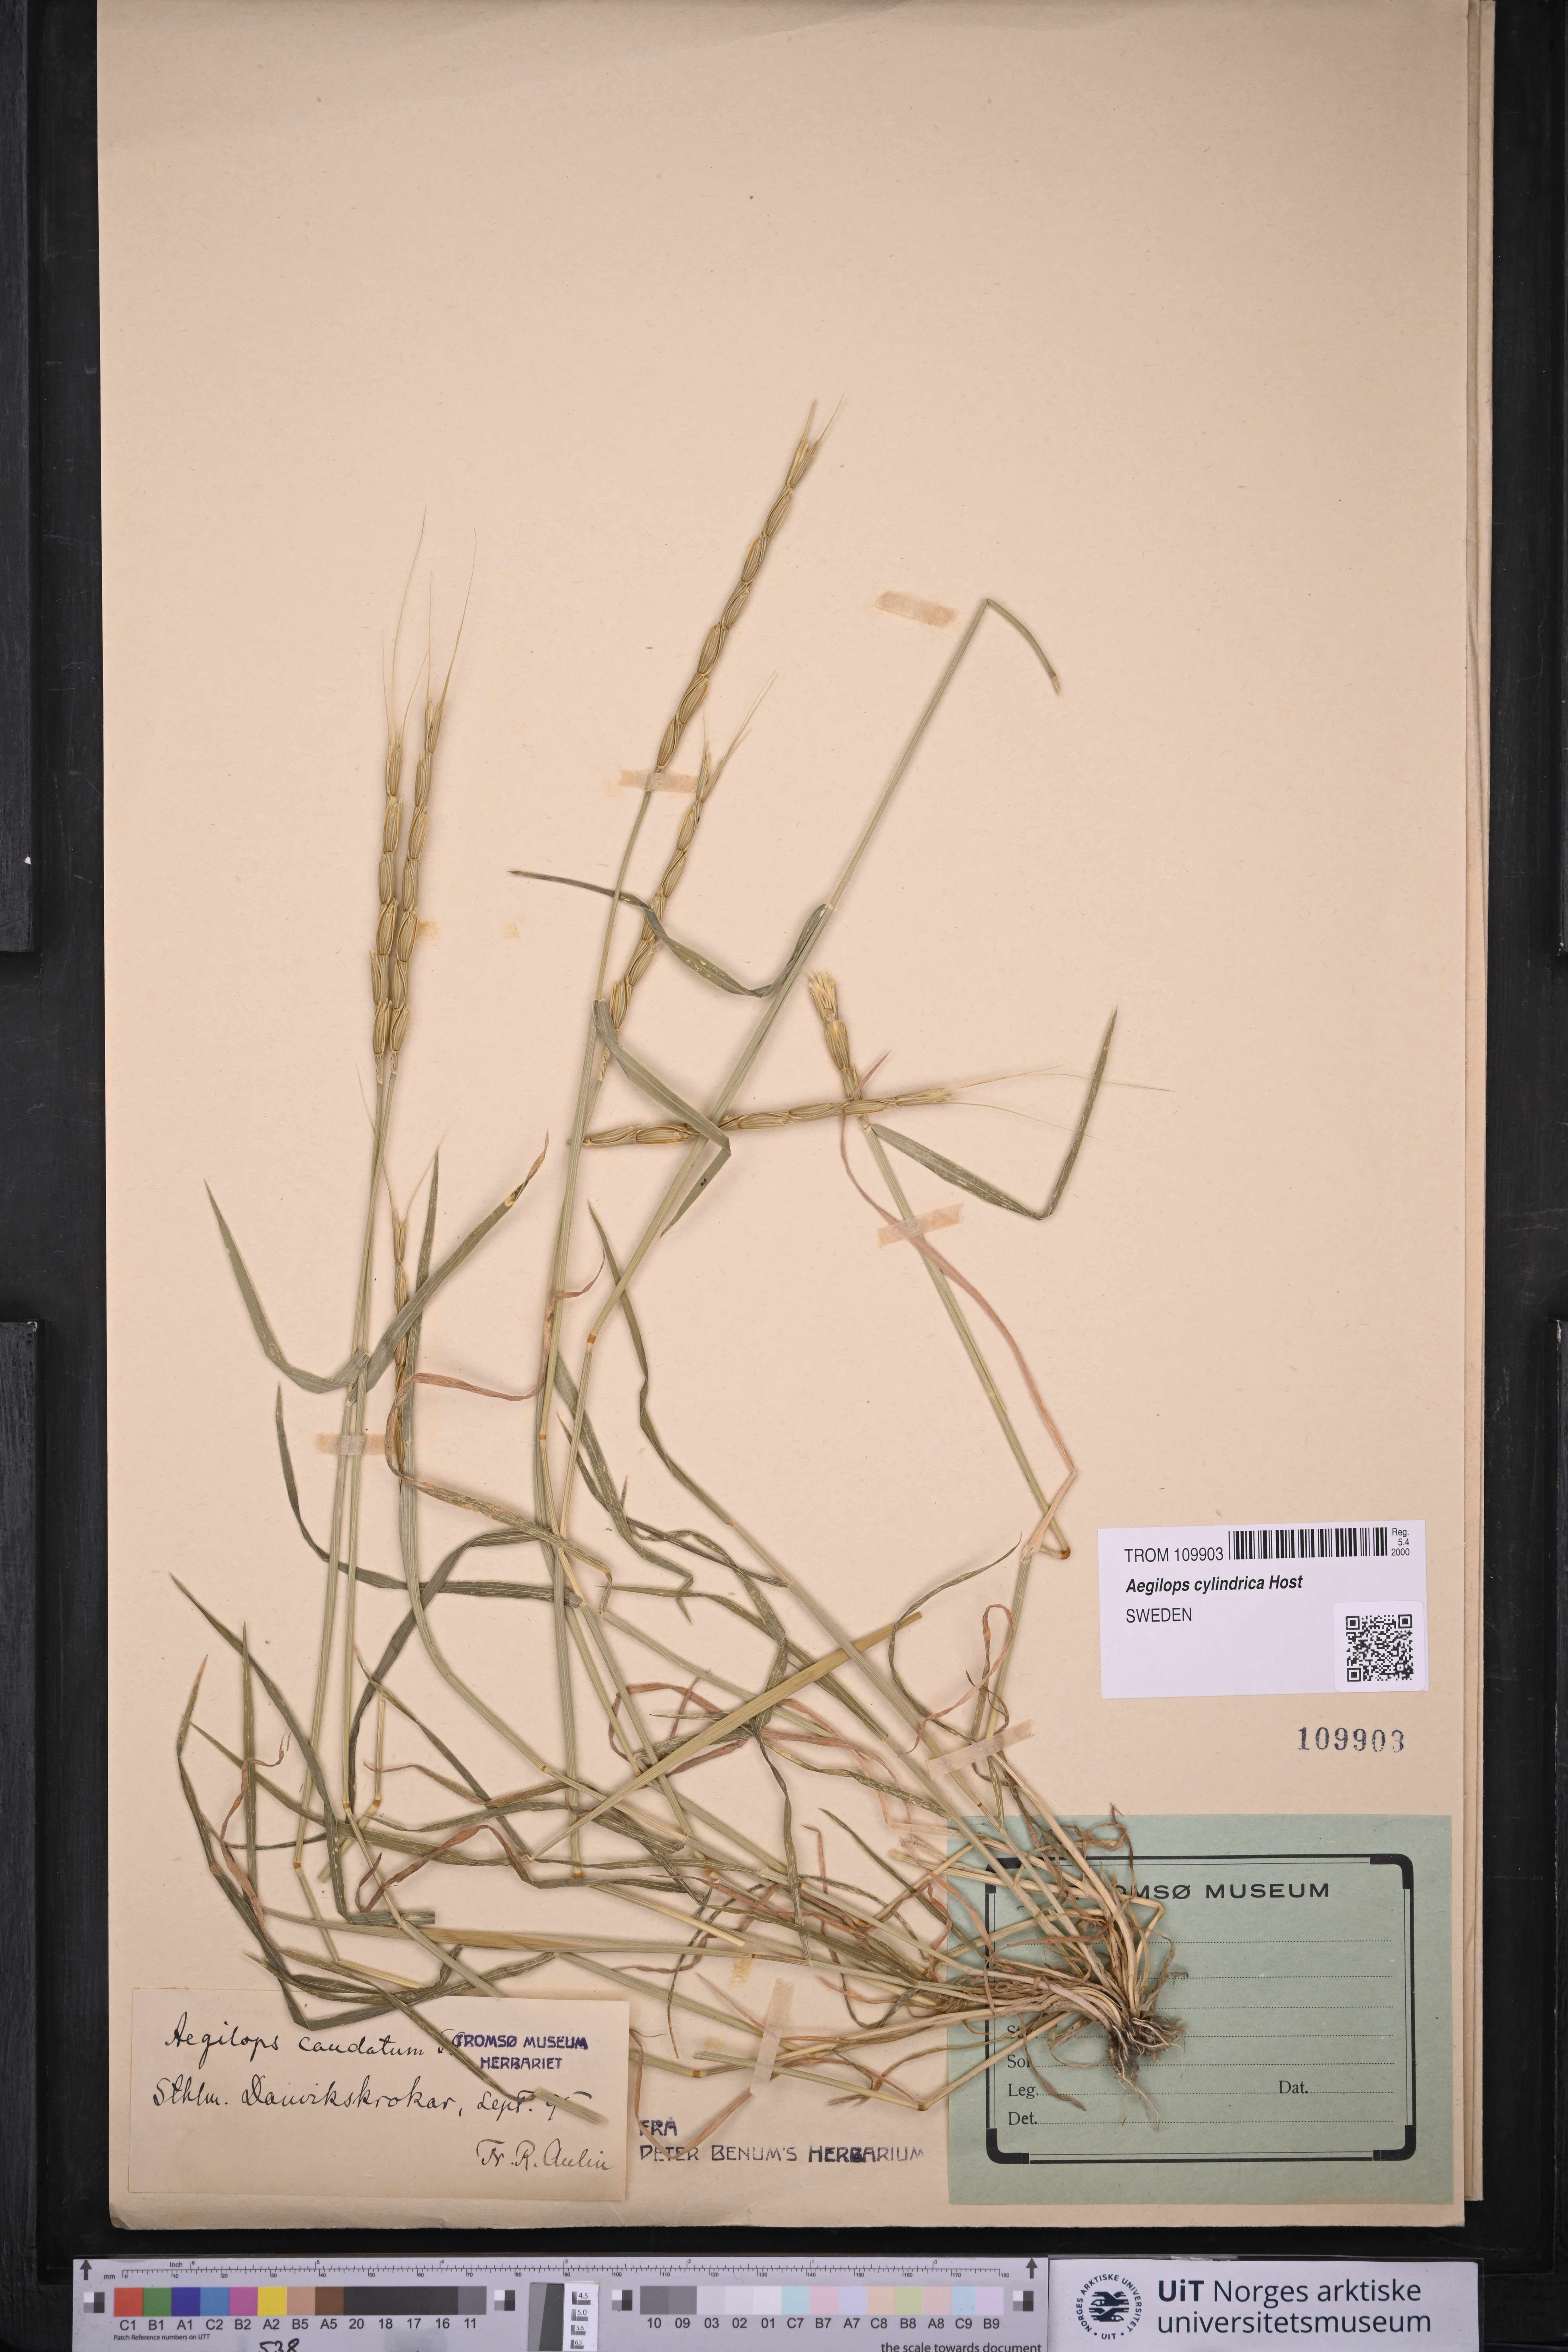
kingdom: Plantae
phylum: Tracheophyta
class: Liliopsida
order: Poales
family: Poaceae
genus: Aegilops
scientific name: Aegilops cylindrica
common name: Jointed goatgrass
